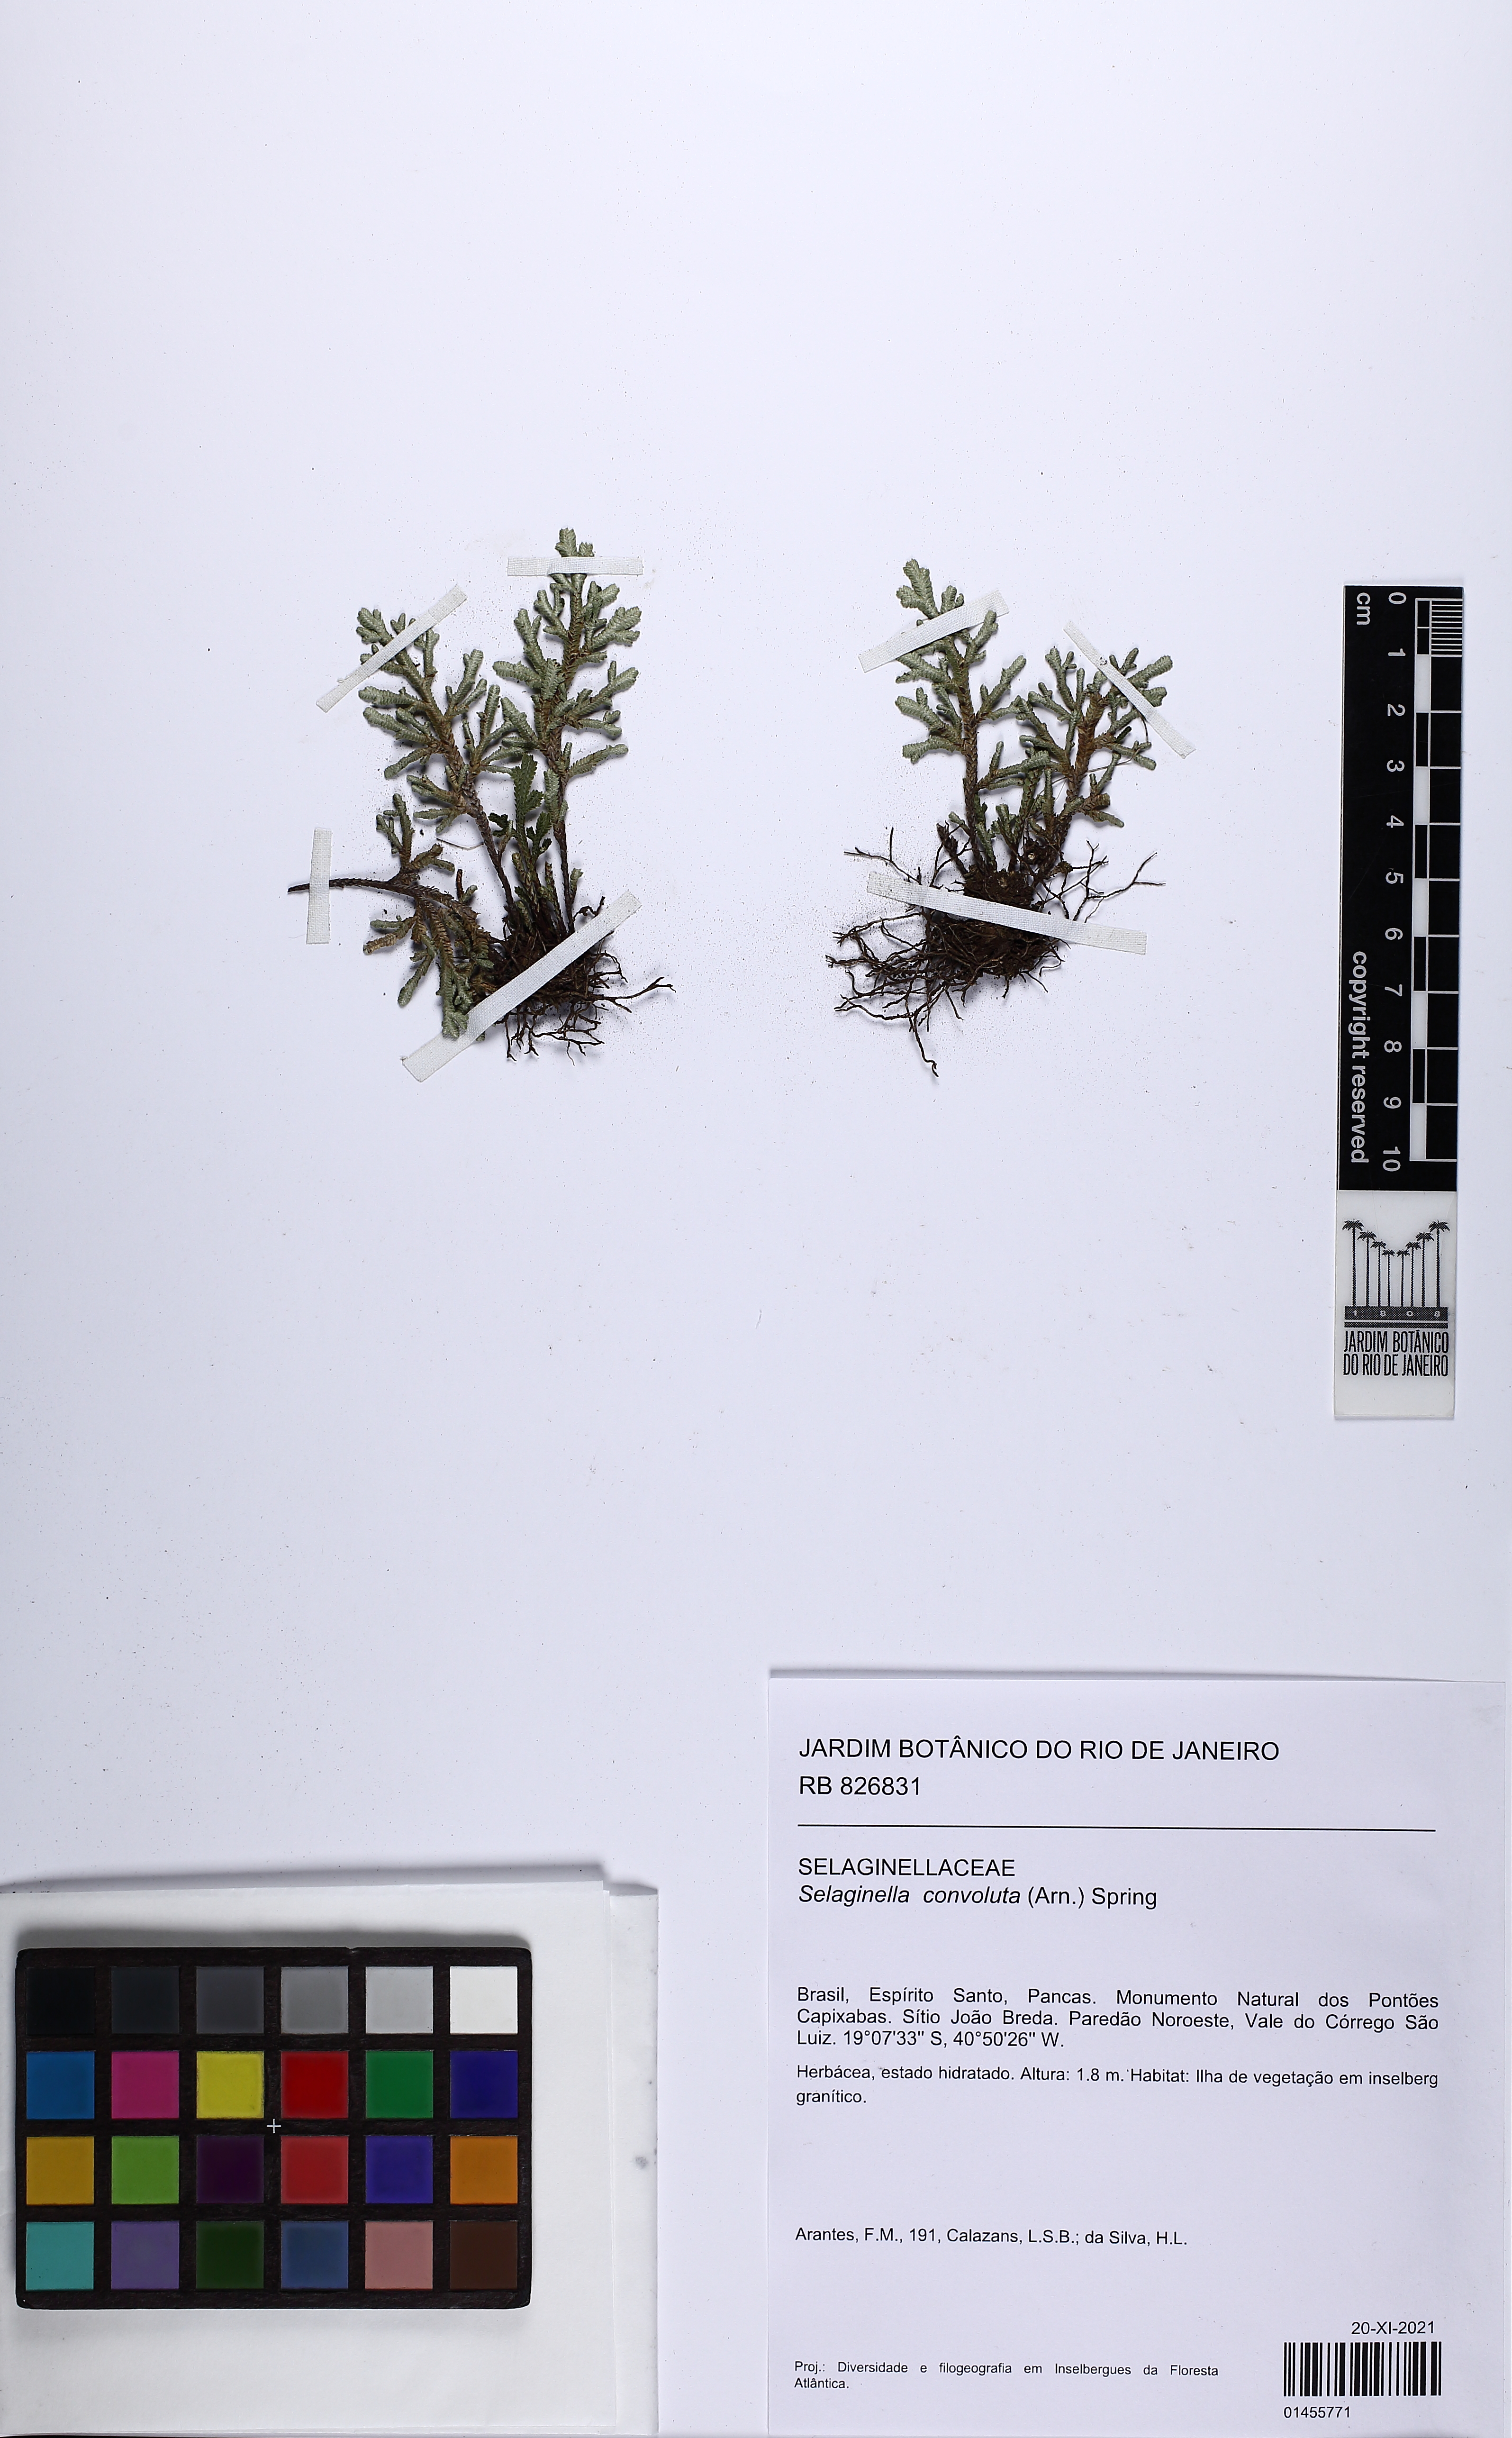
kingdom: Plantae
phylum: Tracheophyta
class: Lycopodiopsida
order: Selaginellales
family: Selaginellaceae
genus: Selaginella
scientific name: Selaginella convoluta
